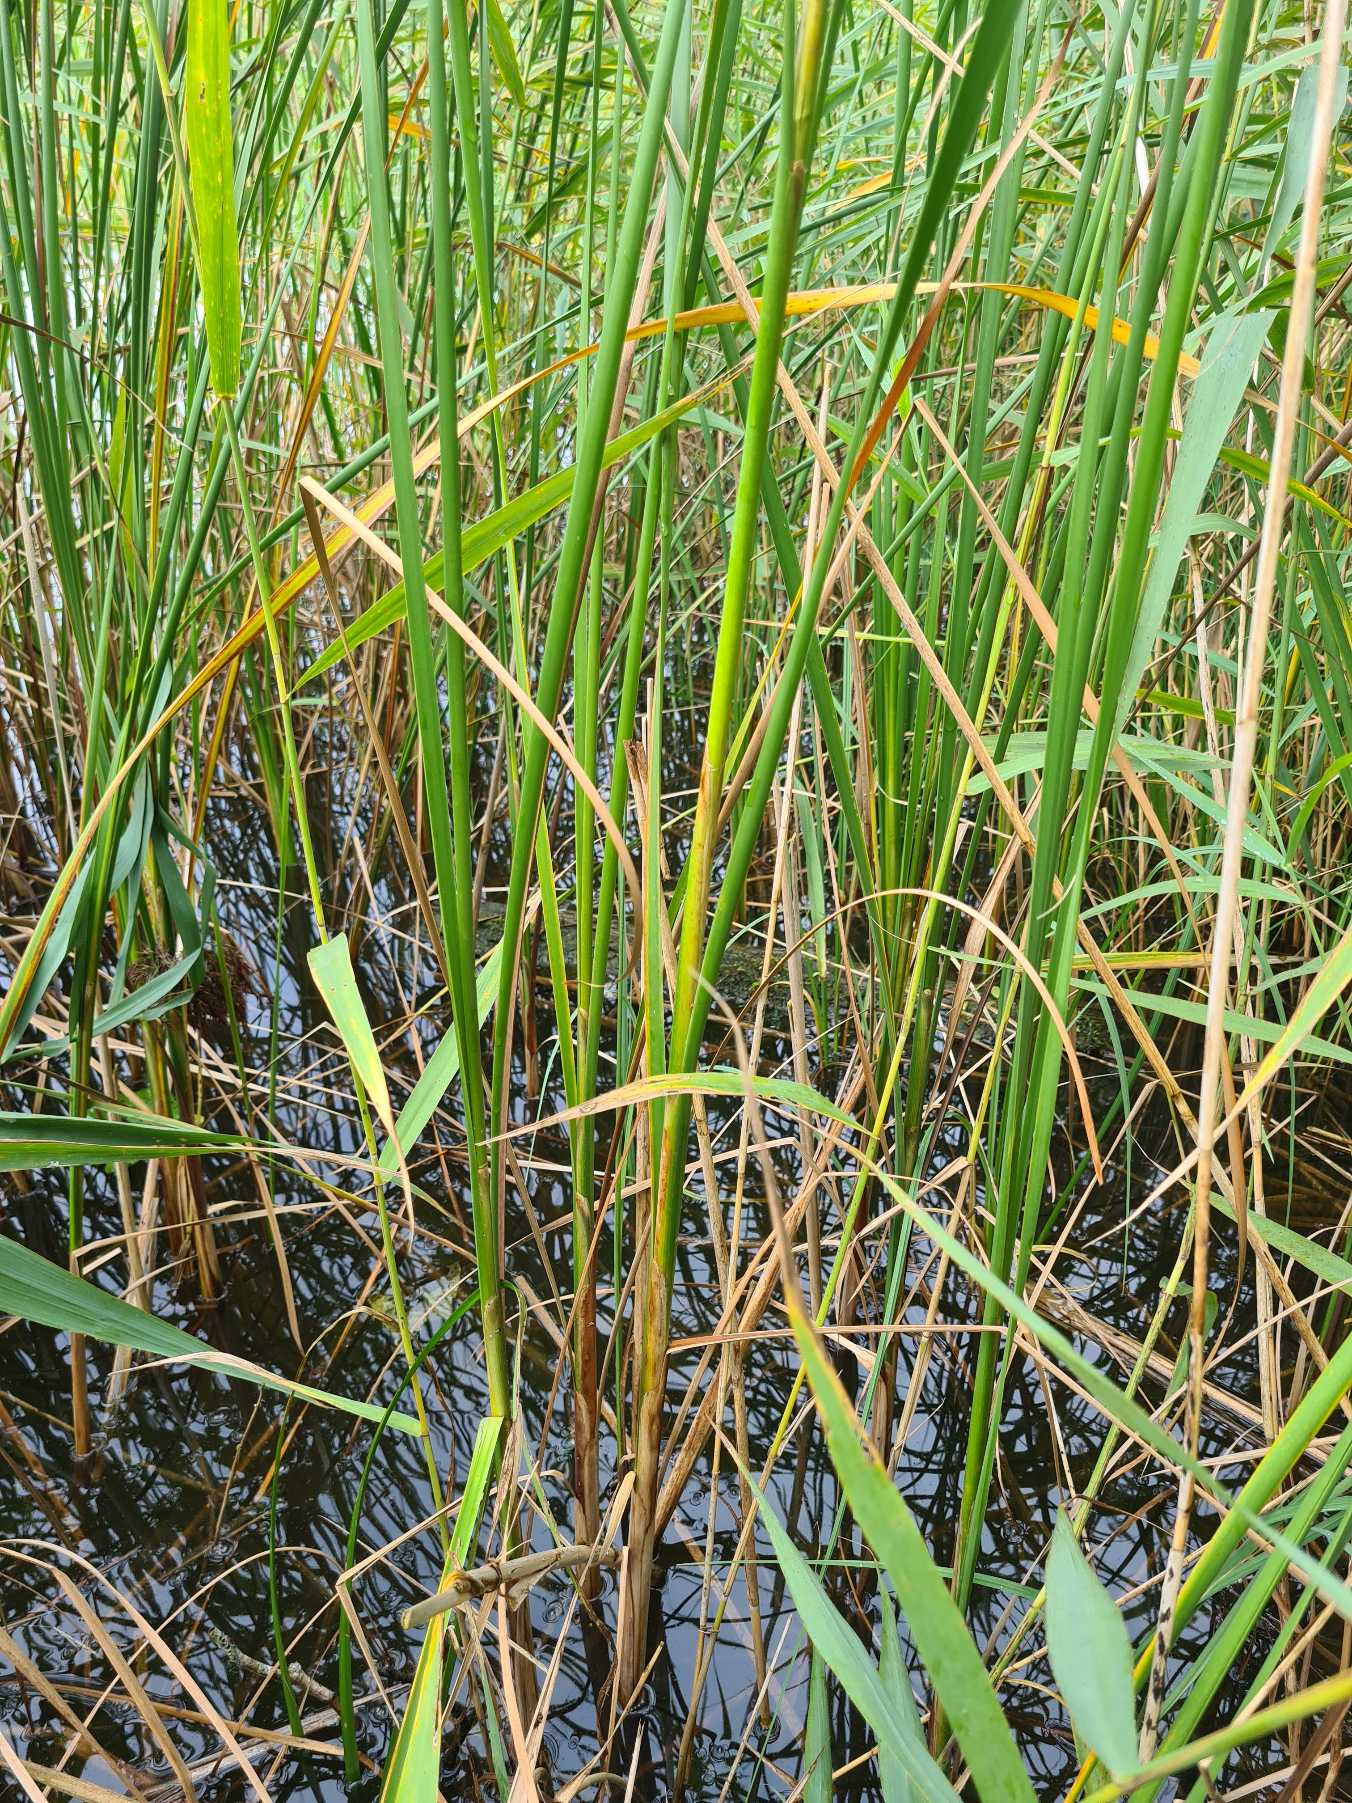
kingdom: Plantae
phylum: Tracheophyta
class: Liliopsida
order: Poales
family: Typhaceae
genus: Typha
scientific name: Typha angustifolia
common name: Smalbladet dunhammer
